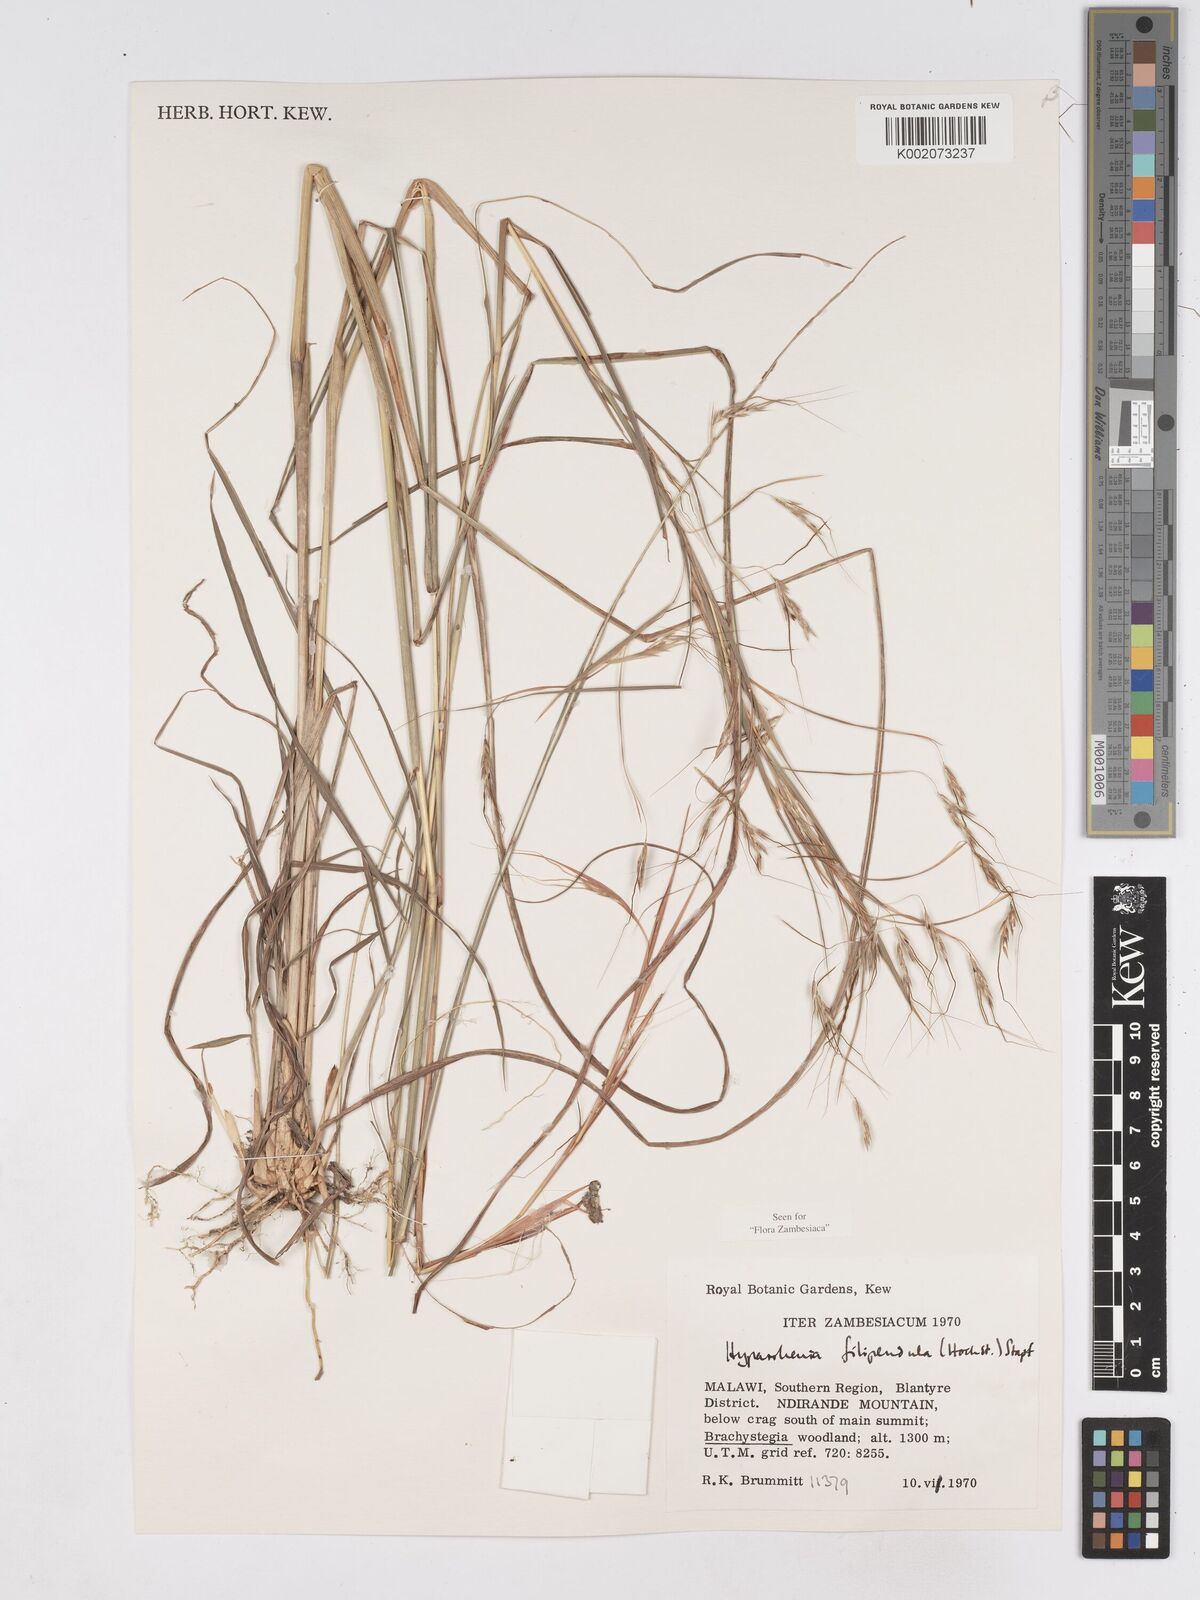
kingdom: Plantae
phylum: Tracheophyta
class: Liliopsida
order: Poales
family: Poaceae
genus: Hyparrhenia
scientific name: Hyparrhenia filipendula
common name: Tambookie grass
